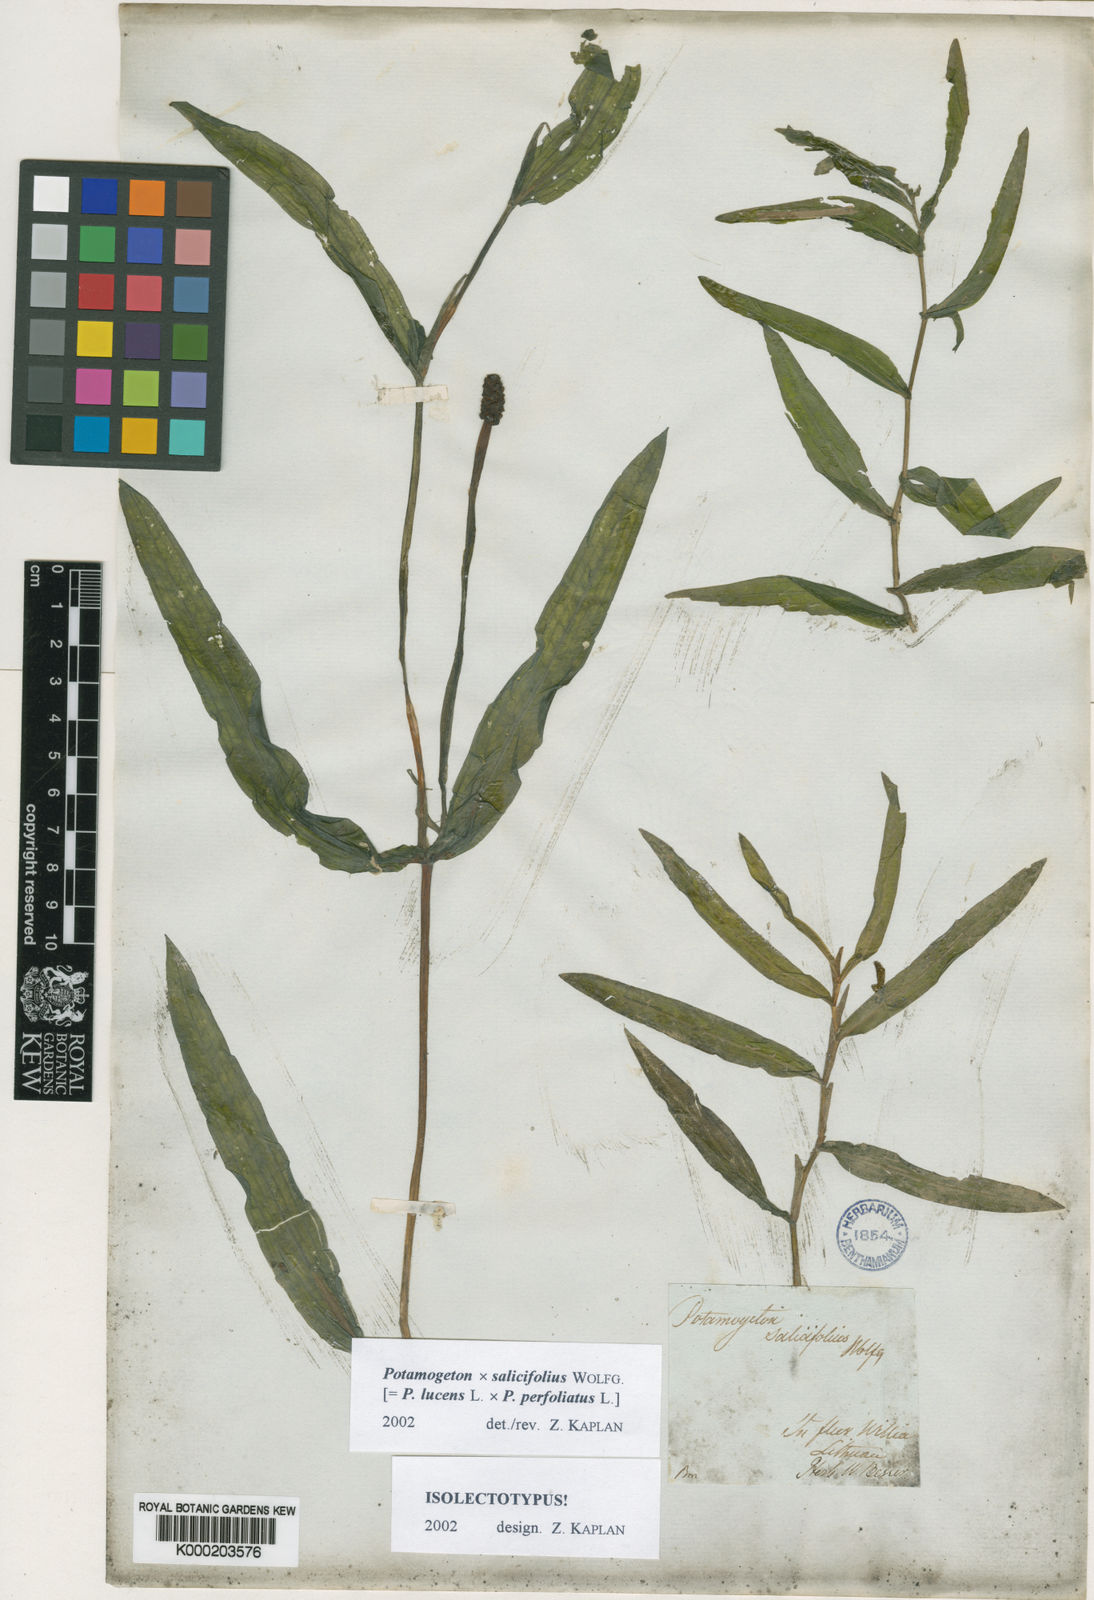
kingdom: Plantae
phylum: Tracheophyta
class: Liliopsida
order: Alismatales
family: Potamogetonaceae
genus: Potamogeton
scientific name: Potamogeton lucens
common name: Shining pondweed
